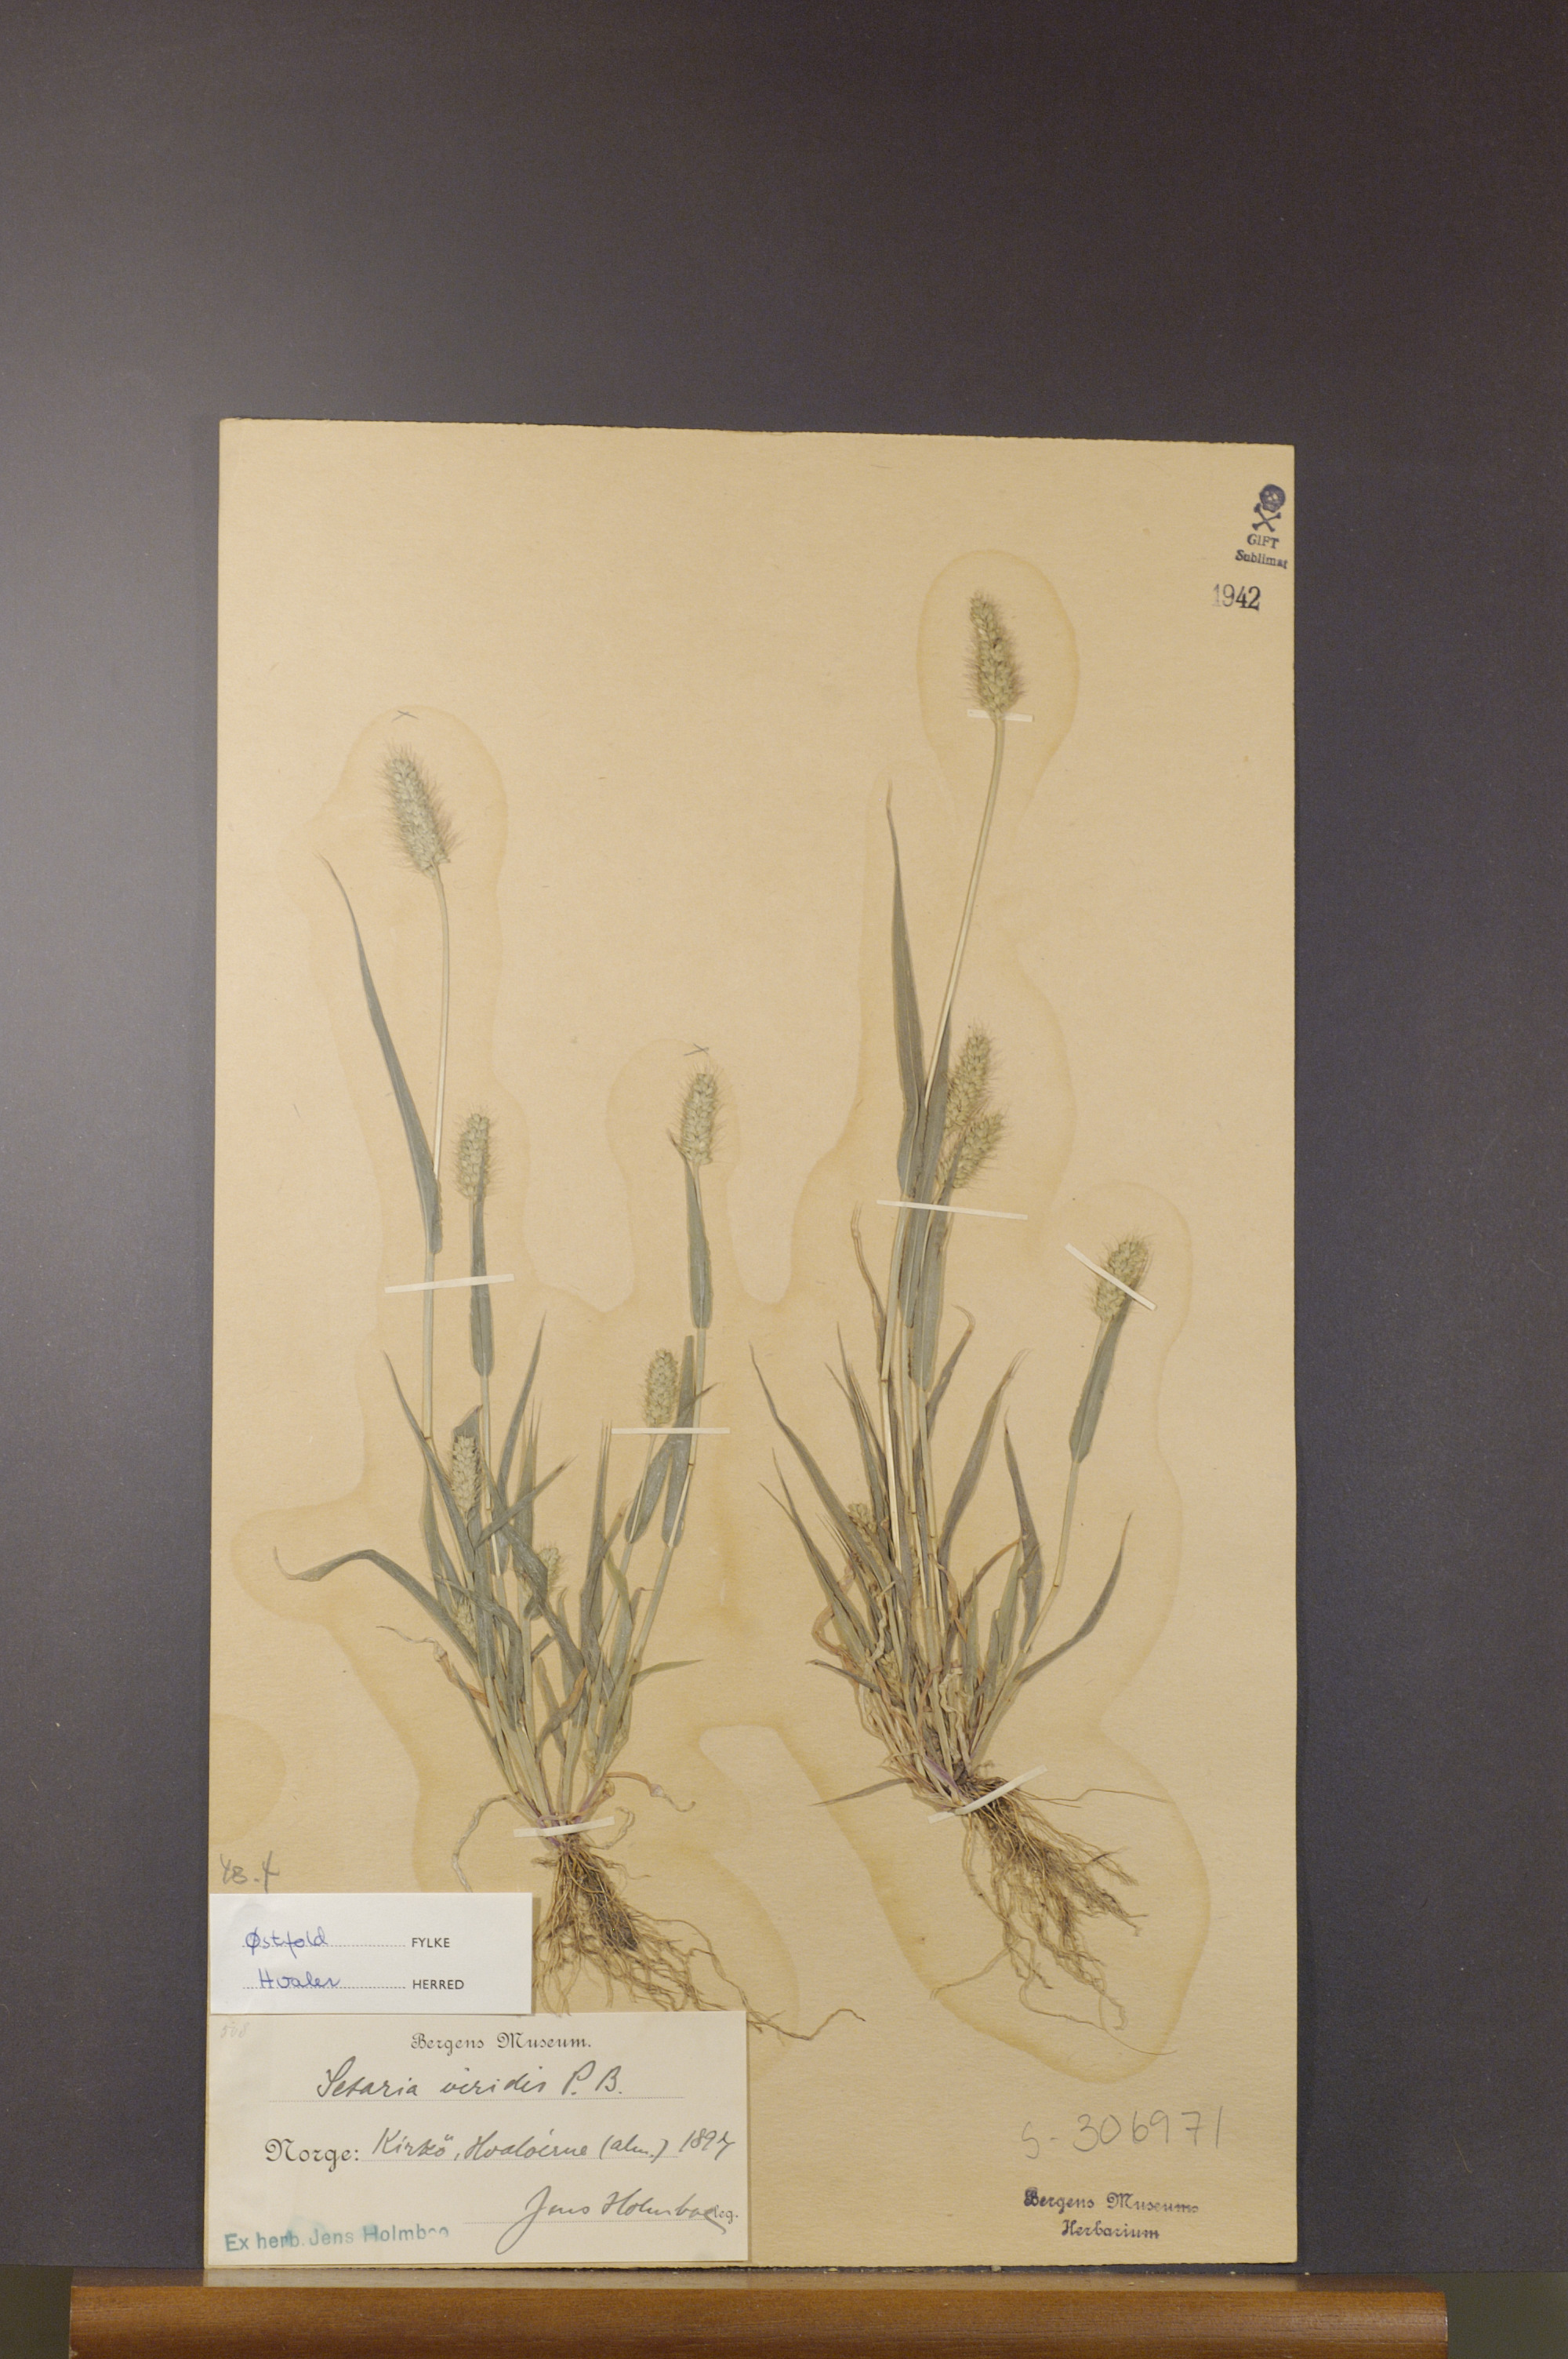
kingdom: Plantae
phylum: Tracheophyta
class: Liliopsida
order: Poales
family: Poaceae
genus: Setaria
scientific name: Setaria viridis
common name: Green bristlegrass
